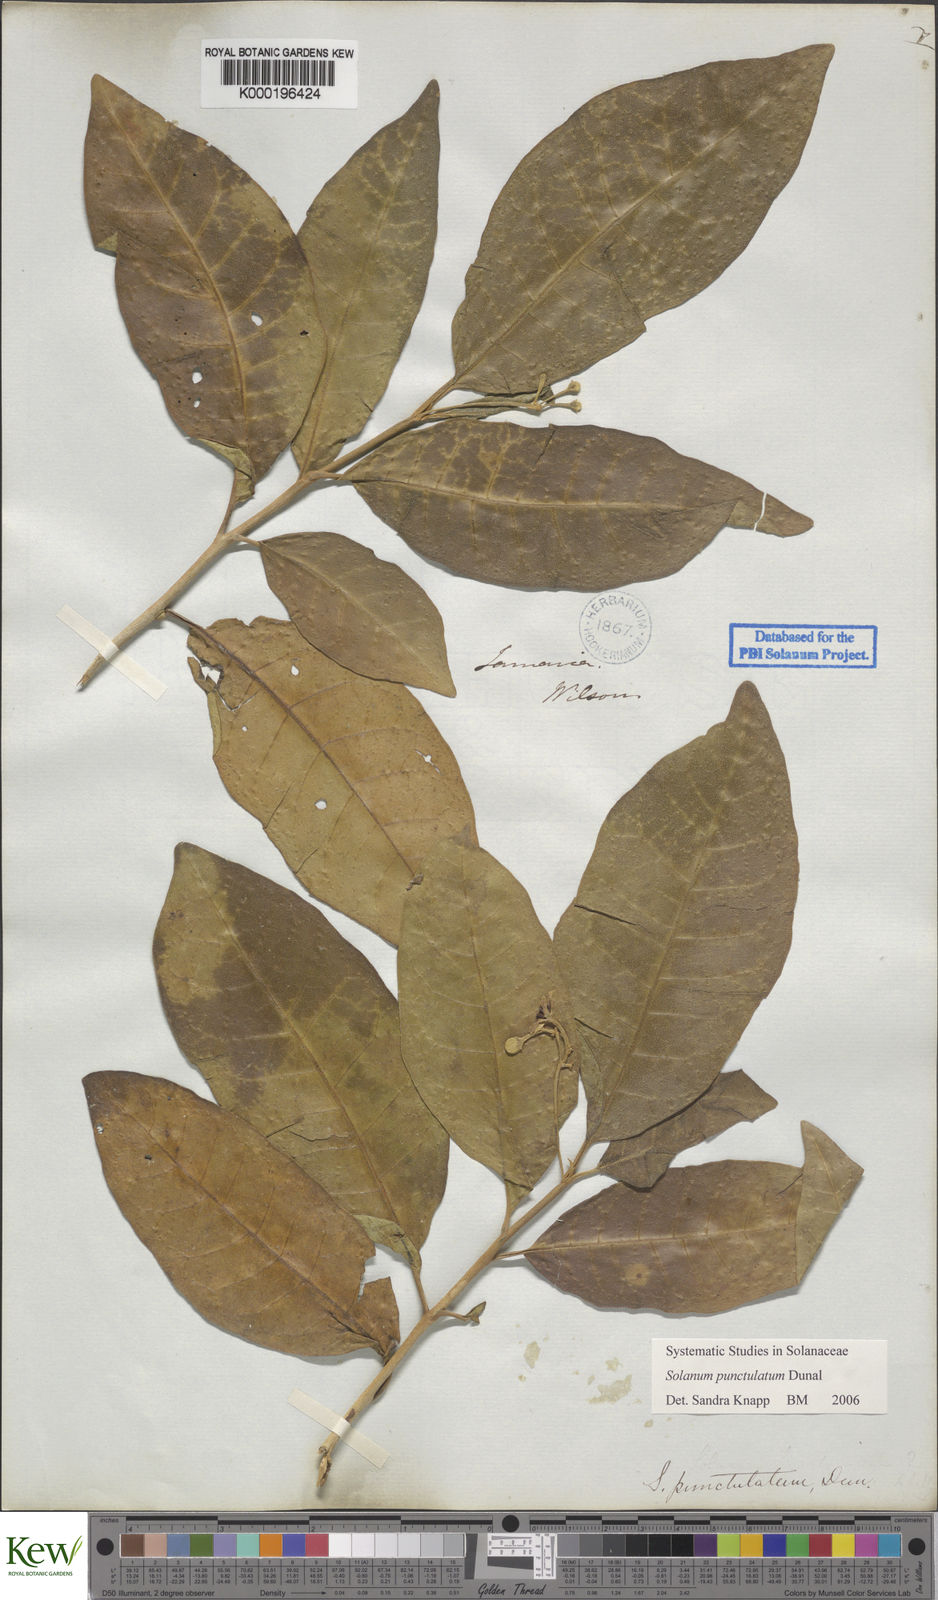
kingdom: Plantae
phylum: Tracheophyta
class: Magnoliopsida
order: Solanales
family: Solanaceae
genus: Solanum
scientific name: Solanum punctulatum
